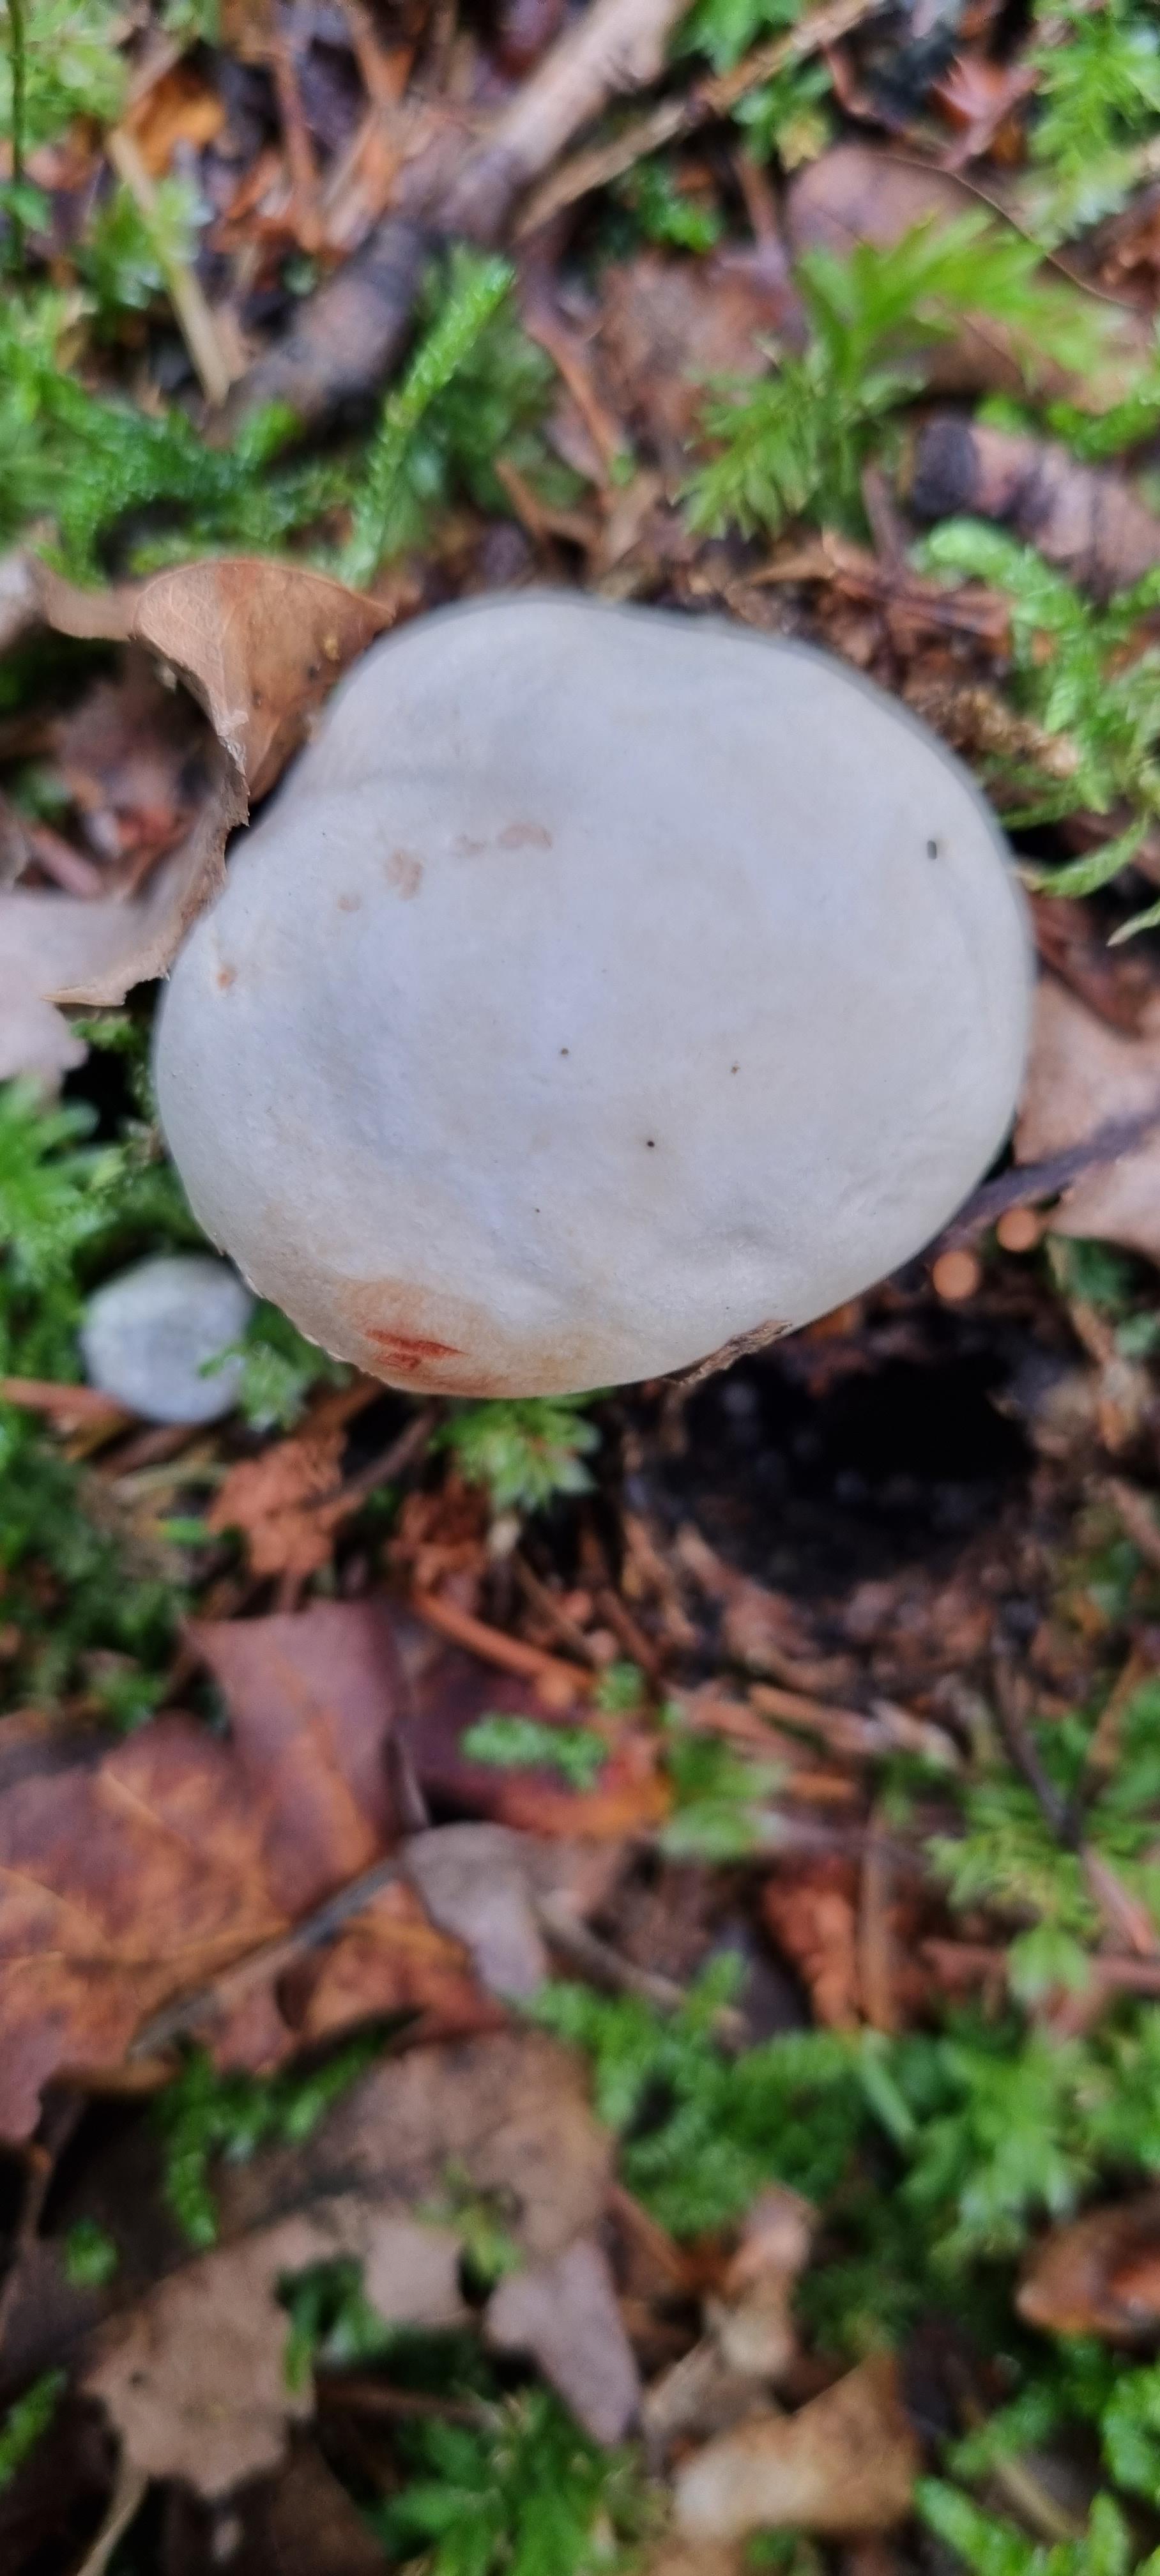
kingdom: Fungi
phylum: Basidiomycota
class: Agaricomycetes
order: Agaricales
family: Agaricaceae
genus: Agaricus
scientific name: Agaricus
